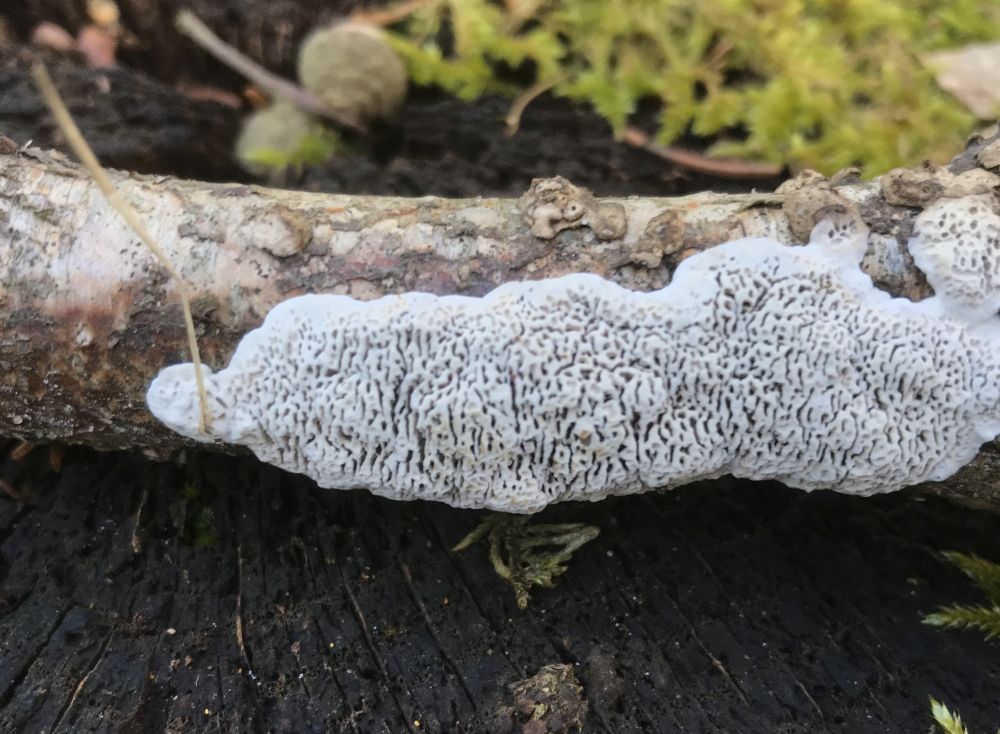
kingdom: Fungi
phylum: Basidiomycota
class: Agaricomycetes
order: Polyporales
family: Polyporaceae
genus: Podofomes
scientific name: Podofomes mollis
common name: blød begporesvamp
